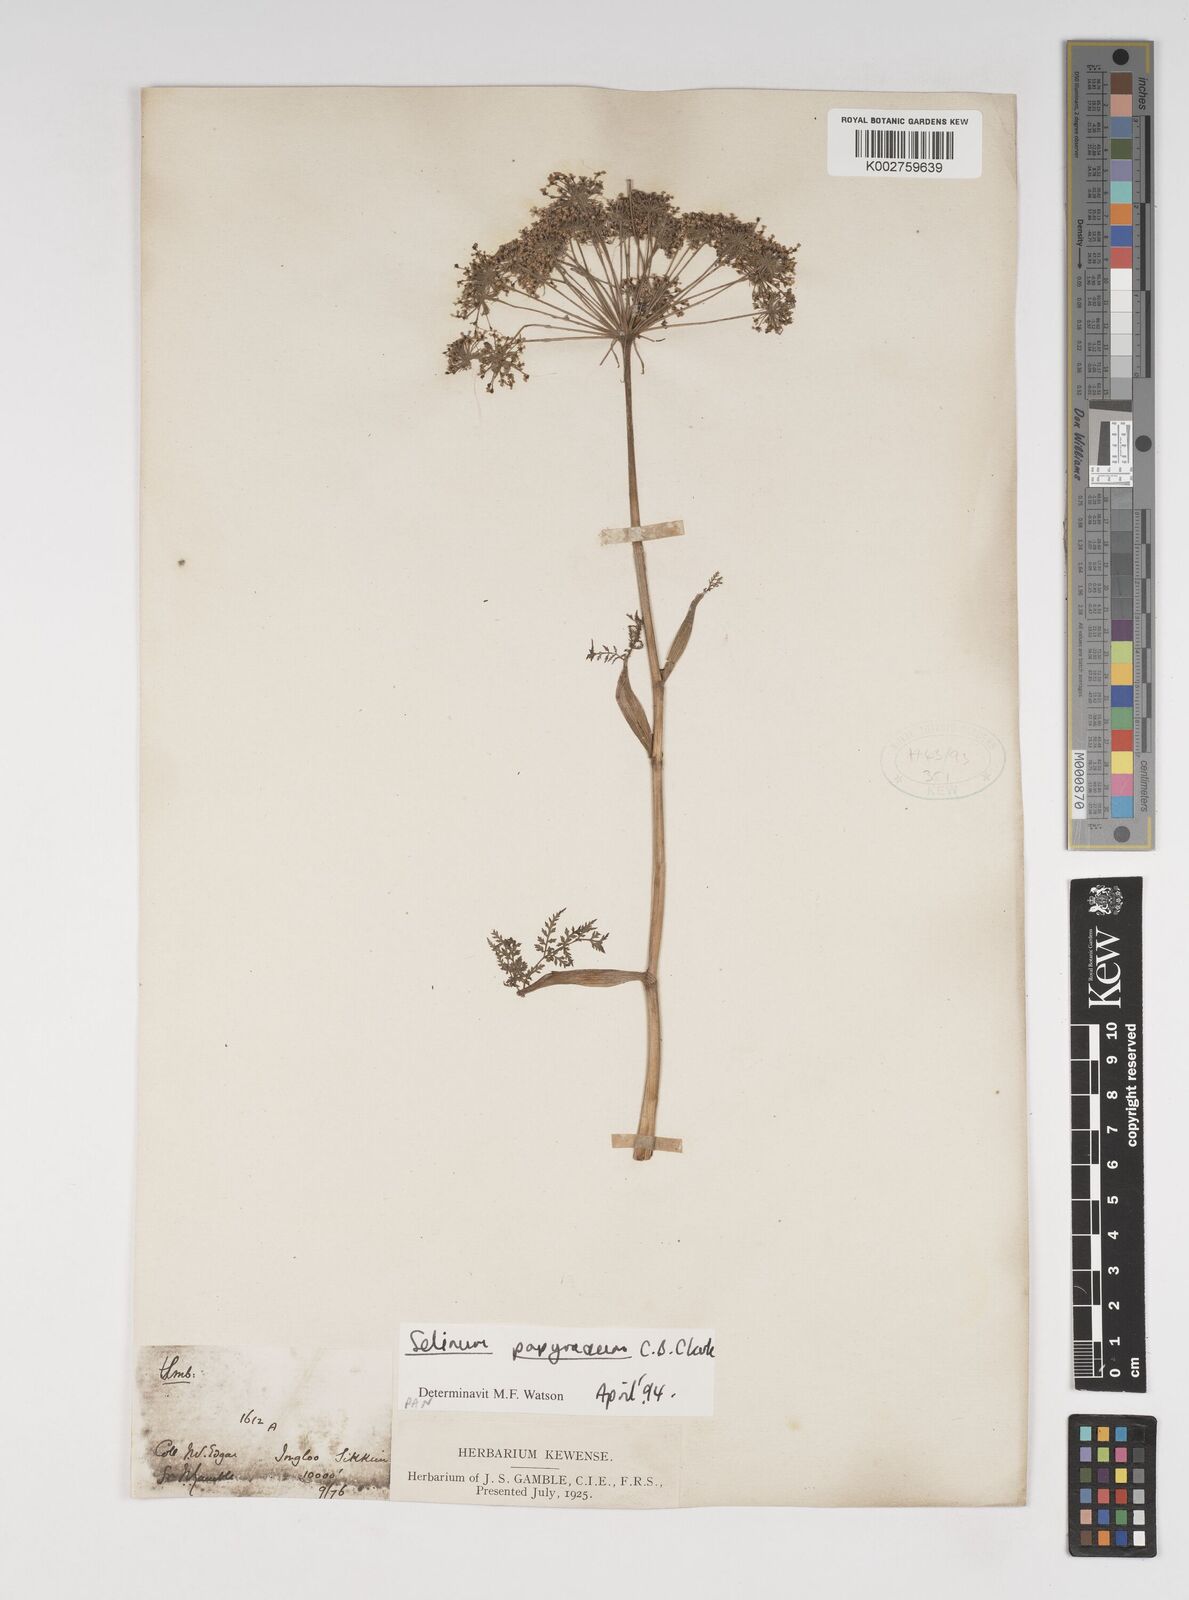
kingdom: Plantae
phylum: Tracheophyta
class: Magnoliopsida
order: Apiales
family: Apiaceae
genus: Conioselinum
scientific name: Conioselinum tataricum
